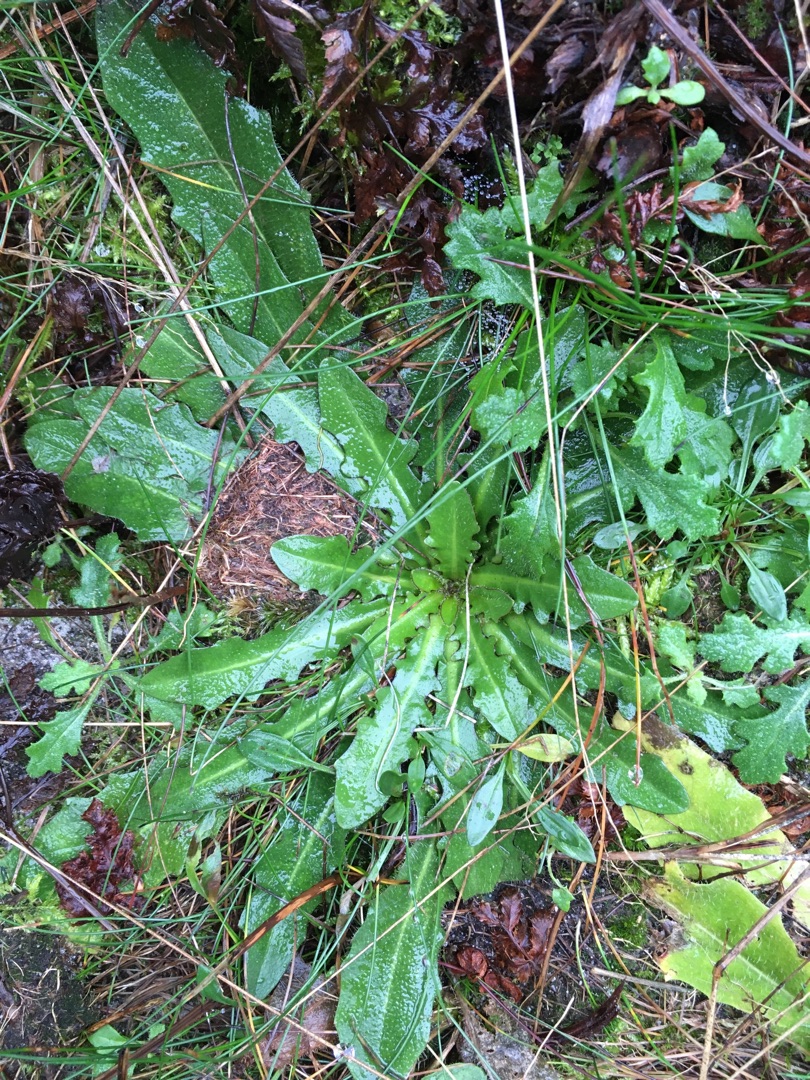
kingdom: Plantae
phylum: Tracheophyta
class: Magnoliopsida
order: Asterales
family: Asteraceae
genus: Hypochaeris
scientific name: Hypochaeris radicata
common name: Almindelig kongepen
